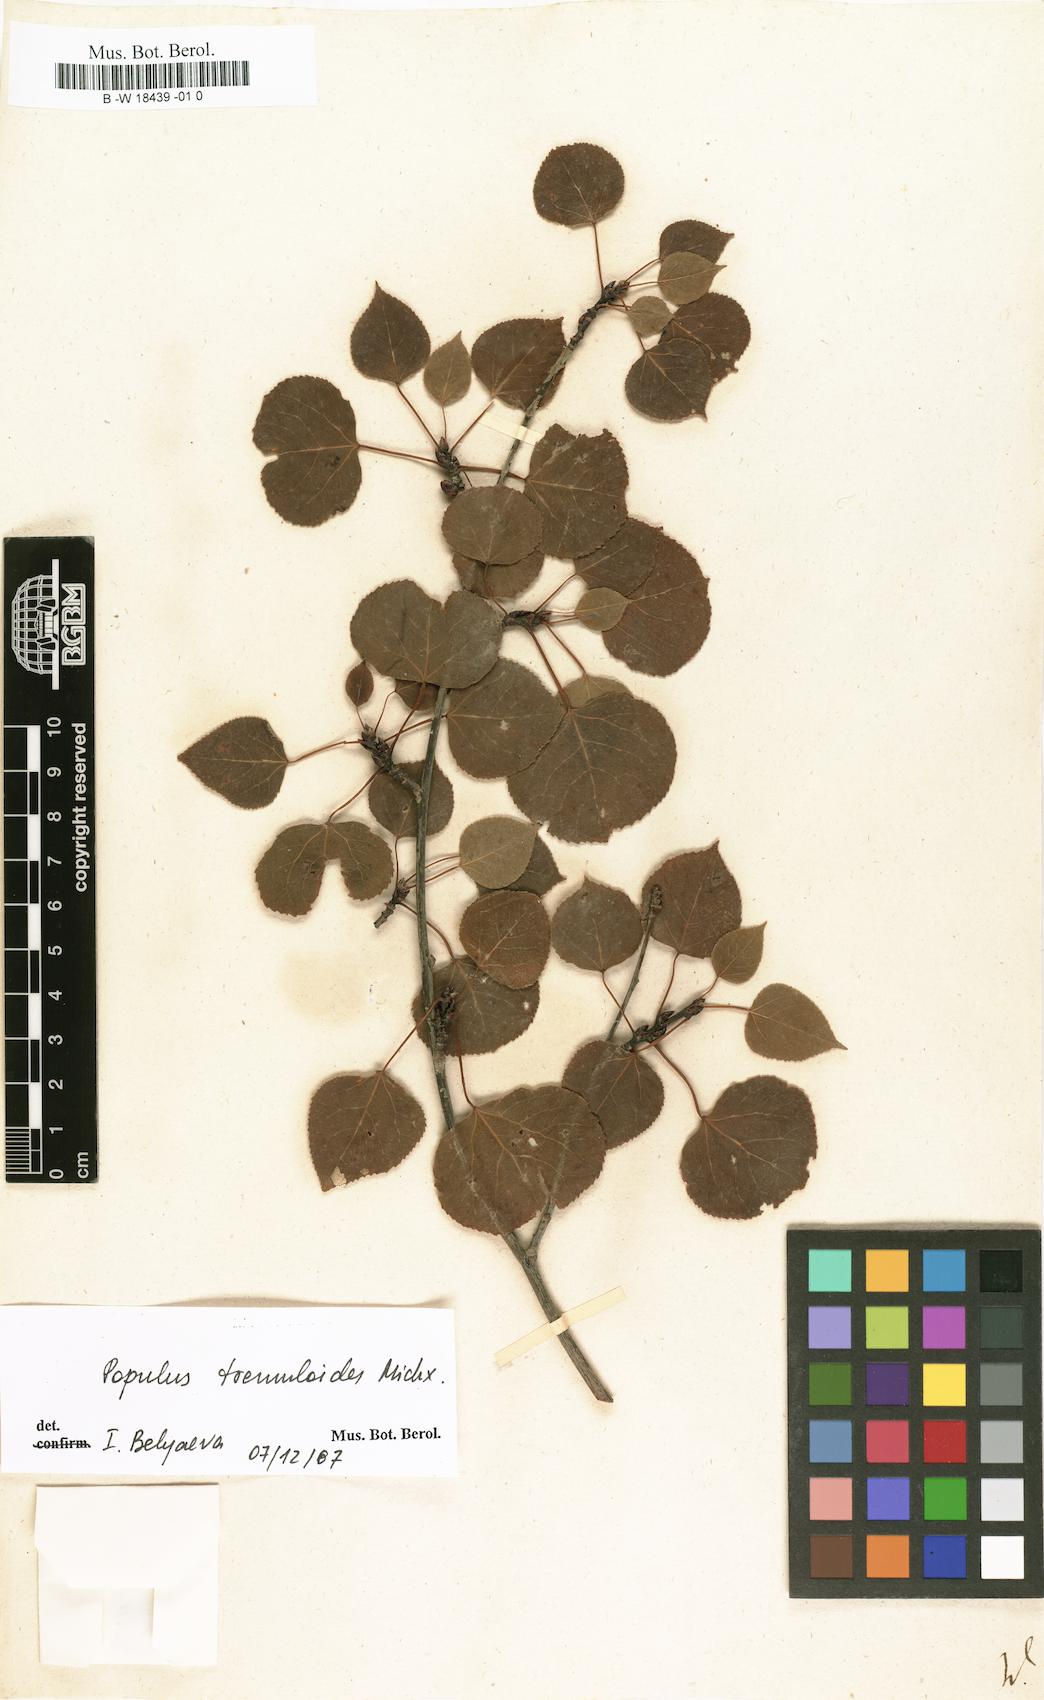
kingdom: Plantae
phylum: Tracheophyta
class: Magnoliopsida
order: Malpighiales
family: Salicaceae
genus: Populus
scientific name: Populus
